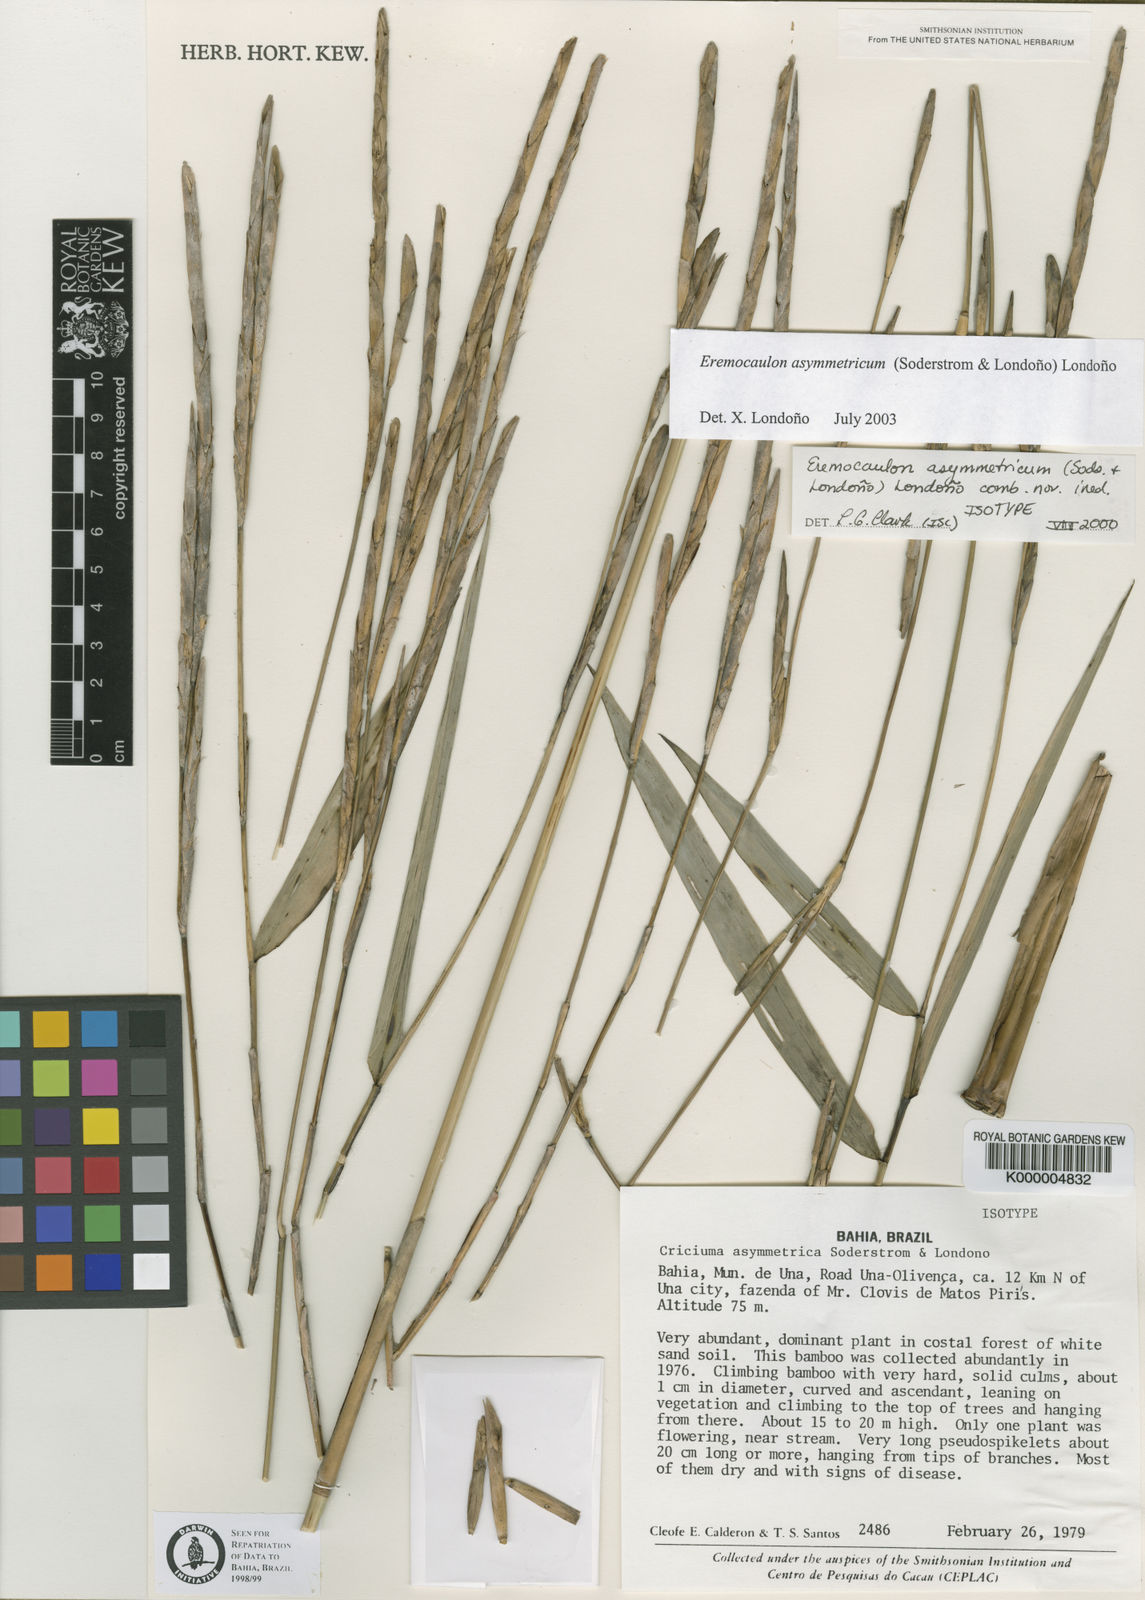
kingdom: Plantae
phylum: Tracheophyta
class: Liliopsida
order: Poales
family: Poaceae
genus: Eremocaulon
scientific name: Eremocaulon
